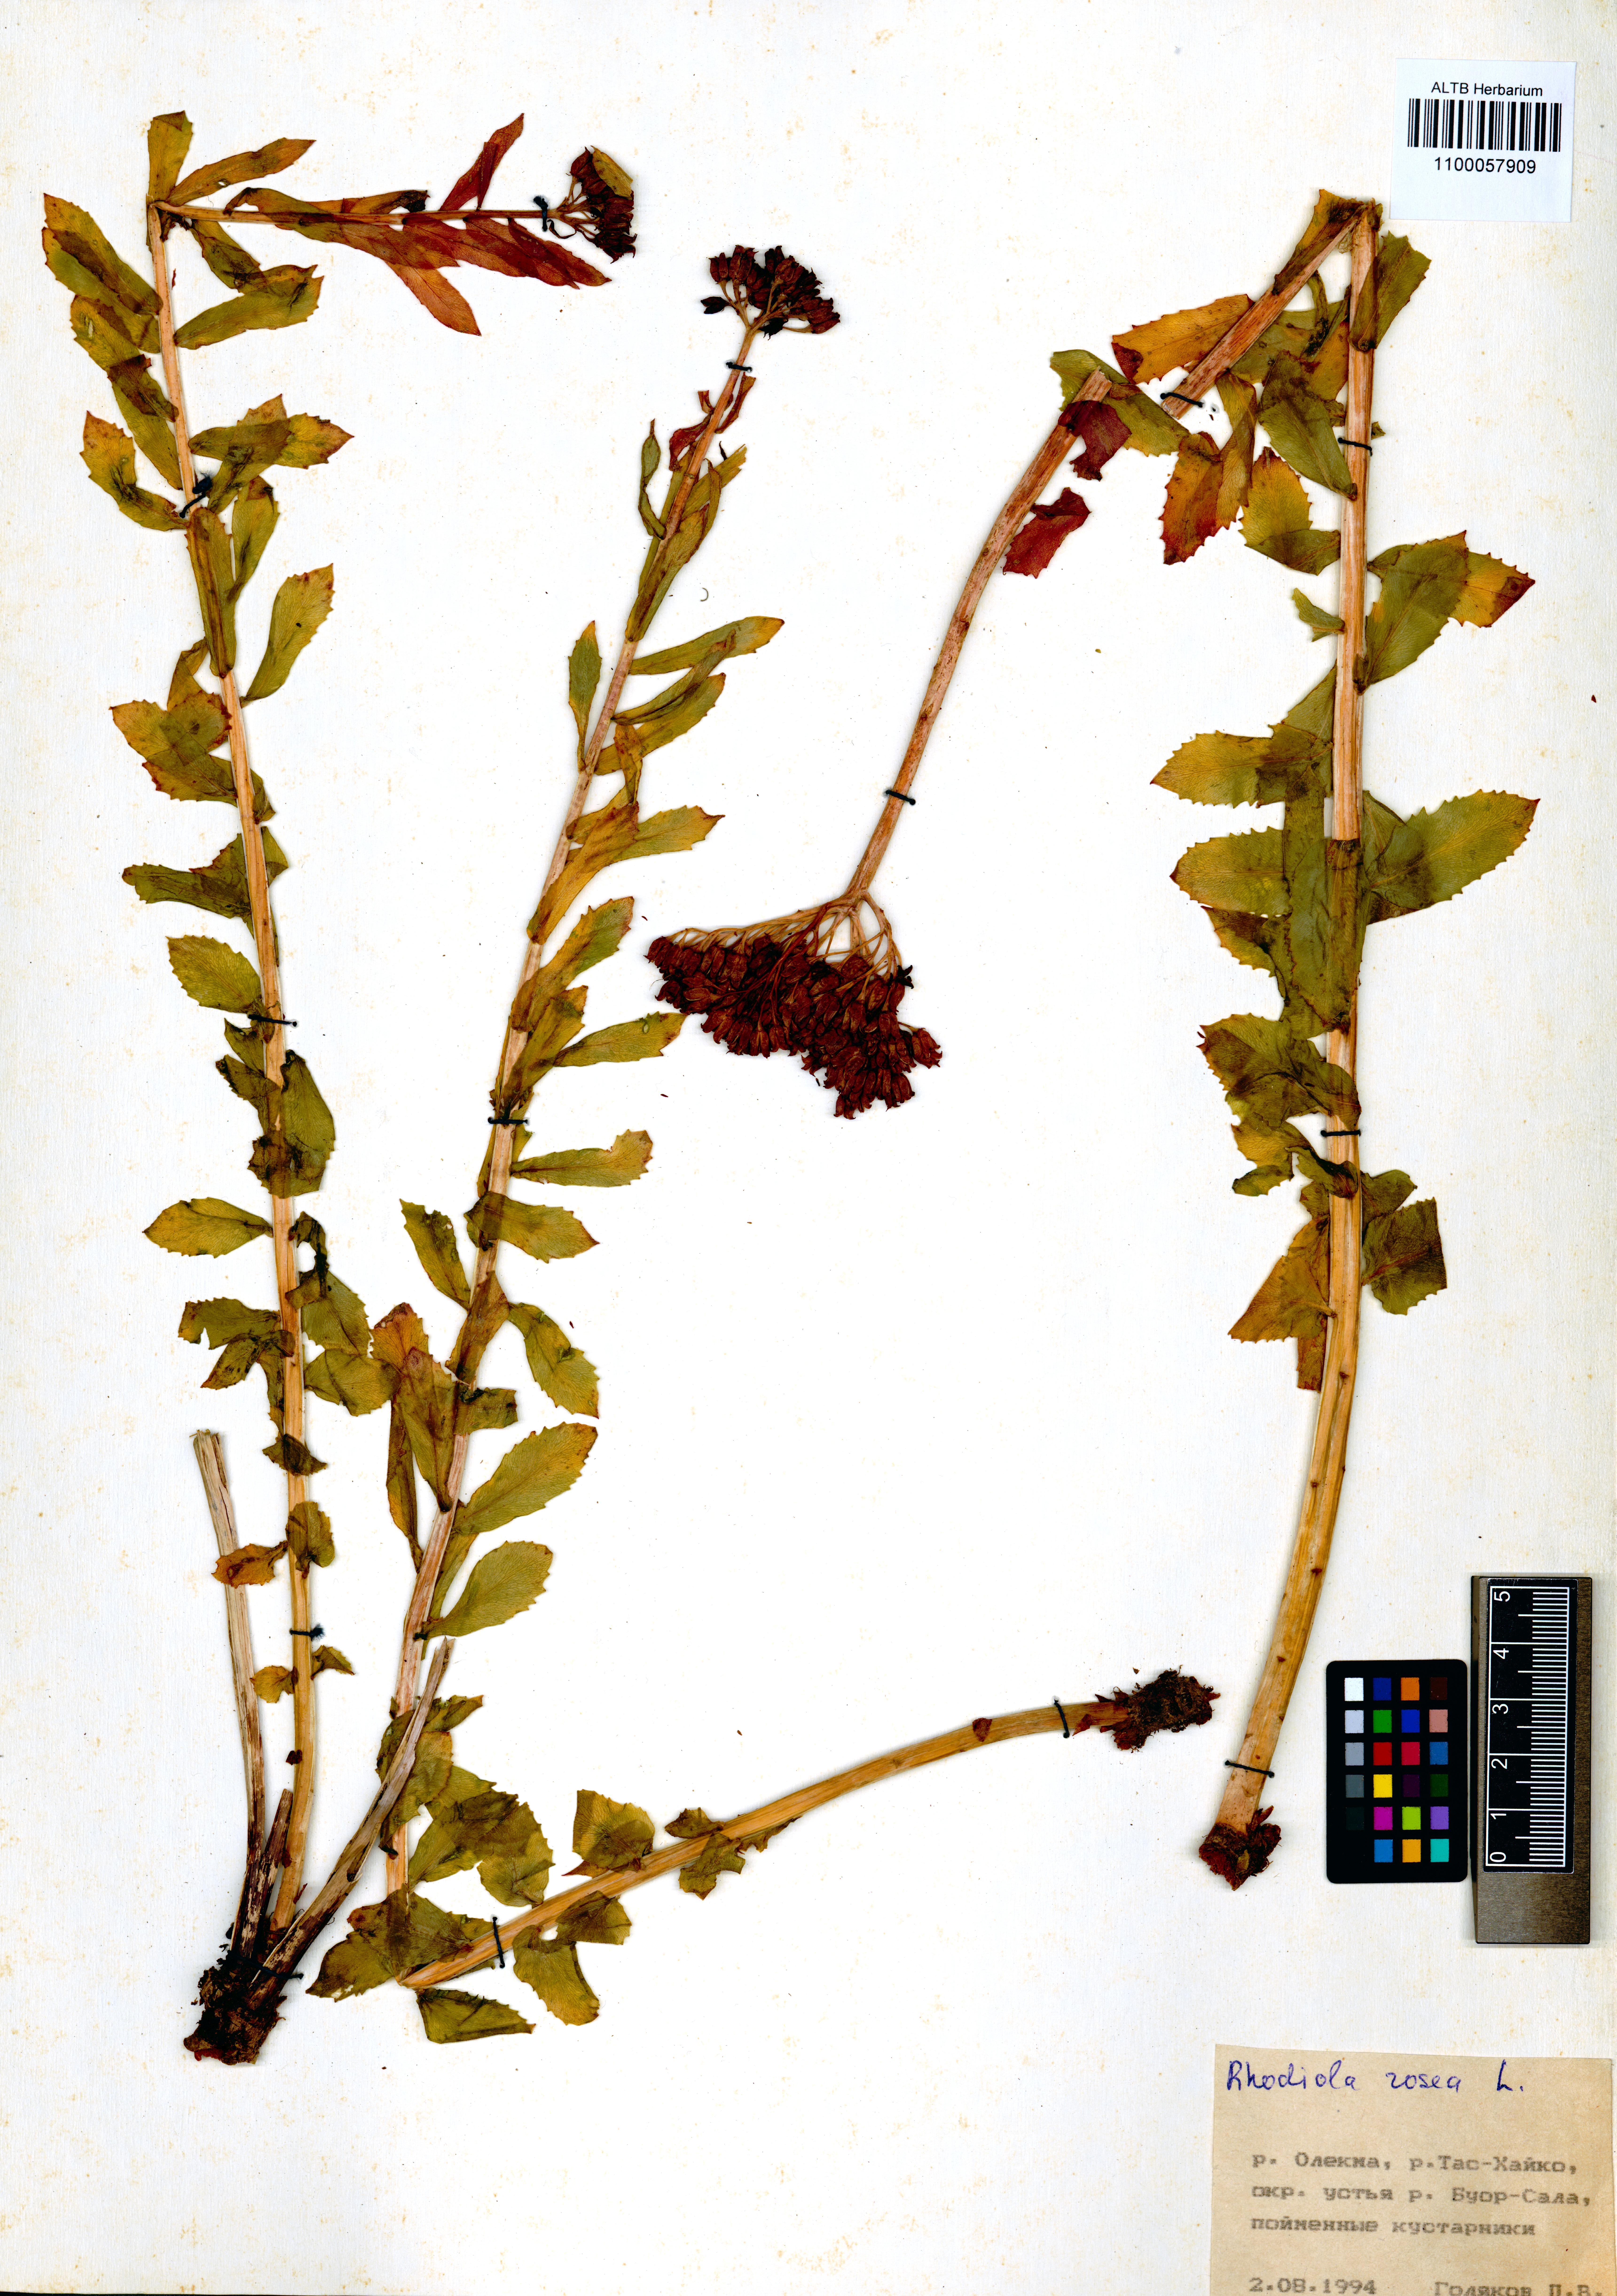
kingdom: Plantae
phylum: Tracheophyta
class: Magnoliopsida
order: Saxifragales
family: Crassulaceae
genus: Rhodiola
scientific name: Rhodiola rosea
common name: Roseroot
